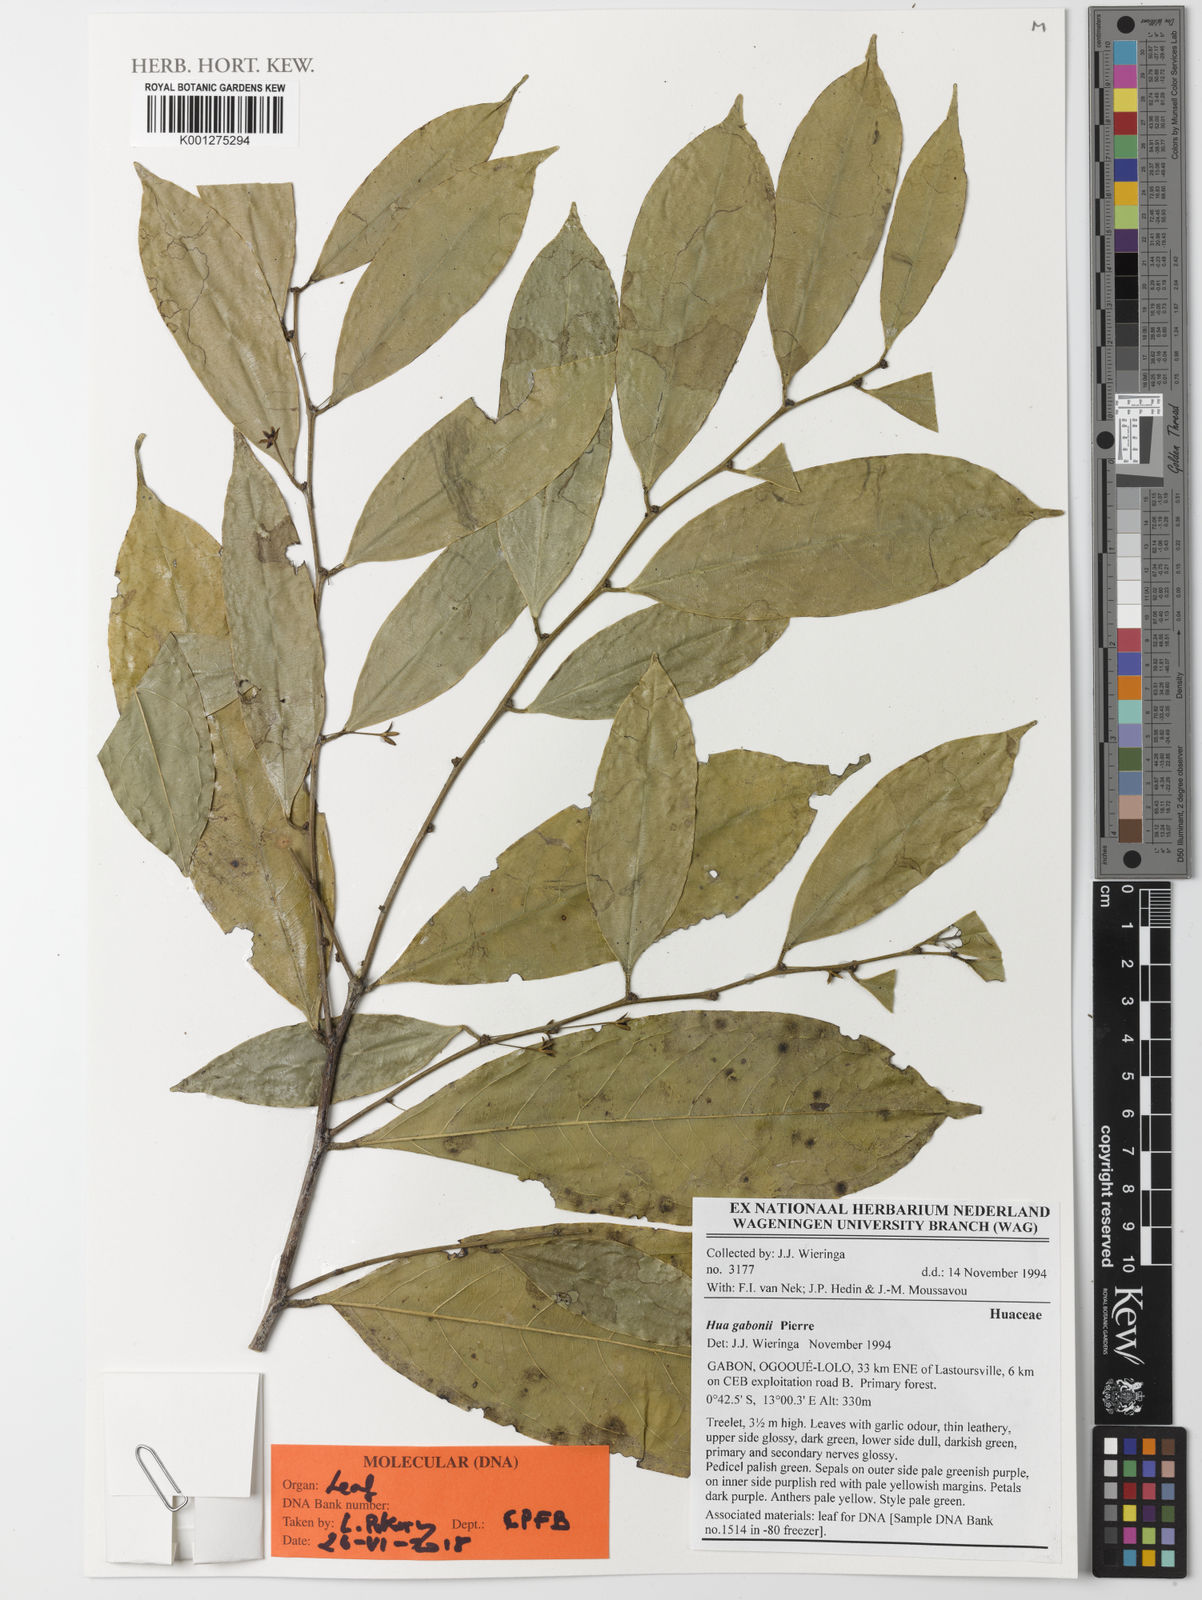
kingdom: Plantae
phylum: Tracheophyta
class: Magnoliopsida
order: Oxalidales
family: Huaceae
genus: Hua
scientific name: Hua gaboni
